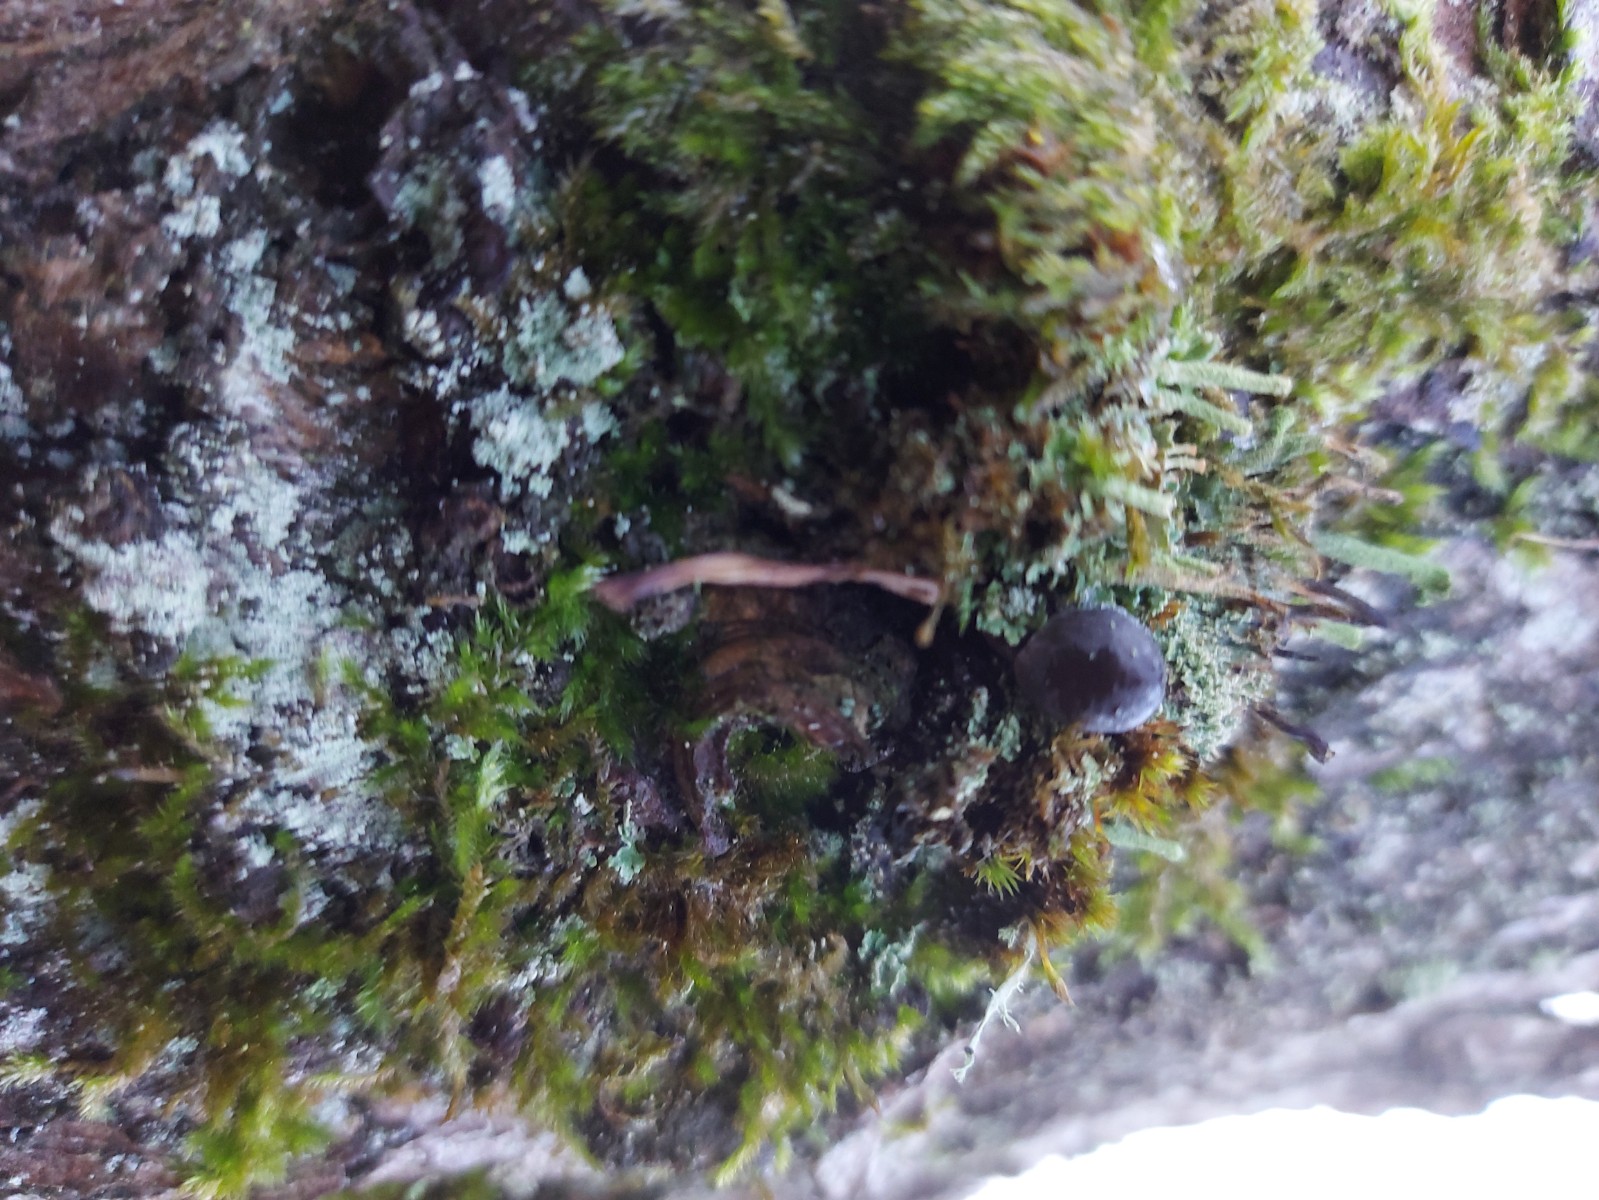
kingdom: Fungi
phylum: Basidiomycota
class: Agaricomycetes
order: Agaricales
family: Mycenaceae
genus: Mycena
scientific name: Mycena
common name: huesvamp
